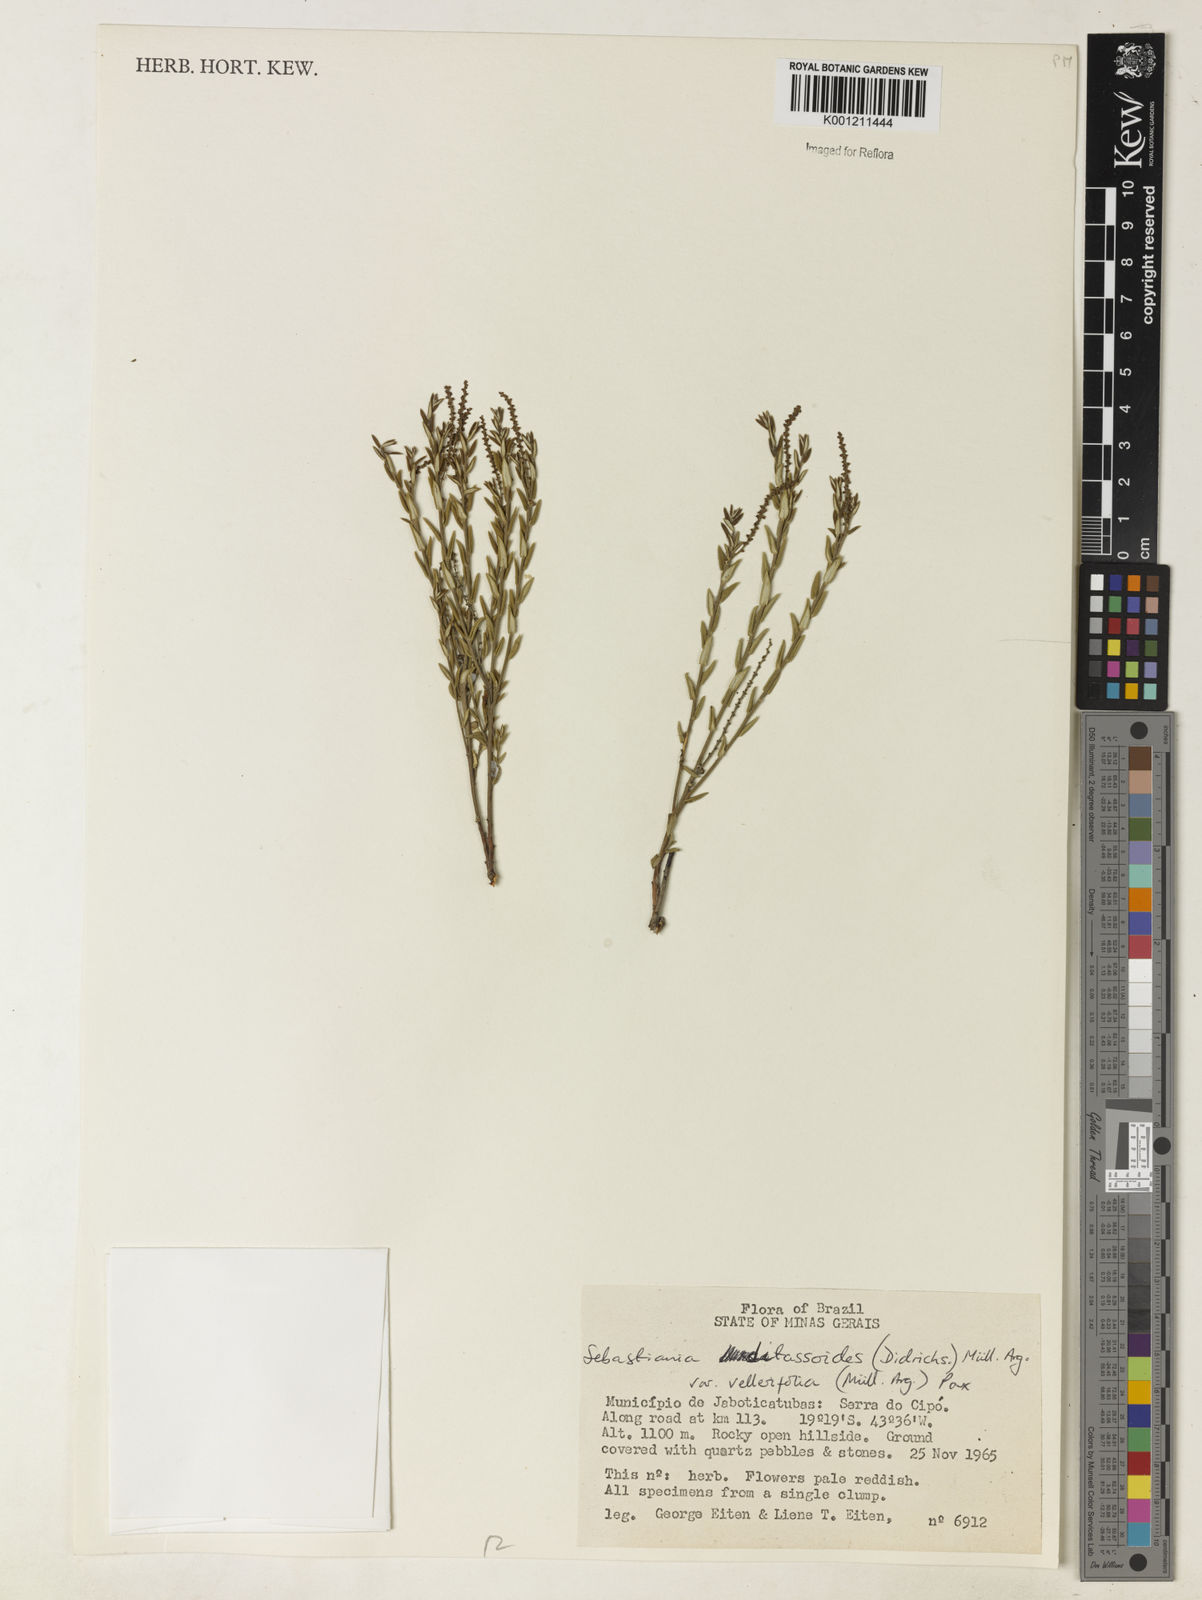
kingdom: Plantae
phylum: Tracheophyta
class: Magnoliopsida
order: Malpighiales
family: Euphorbiaceae
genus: Microstachys
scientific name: Microstachys ditassoides
